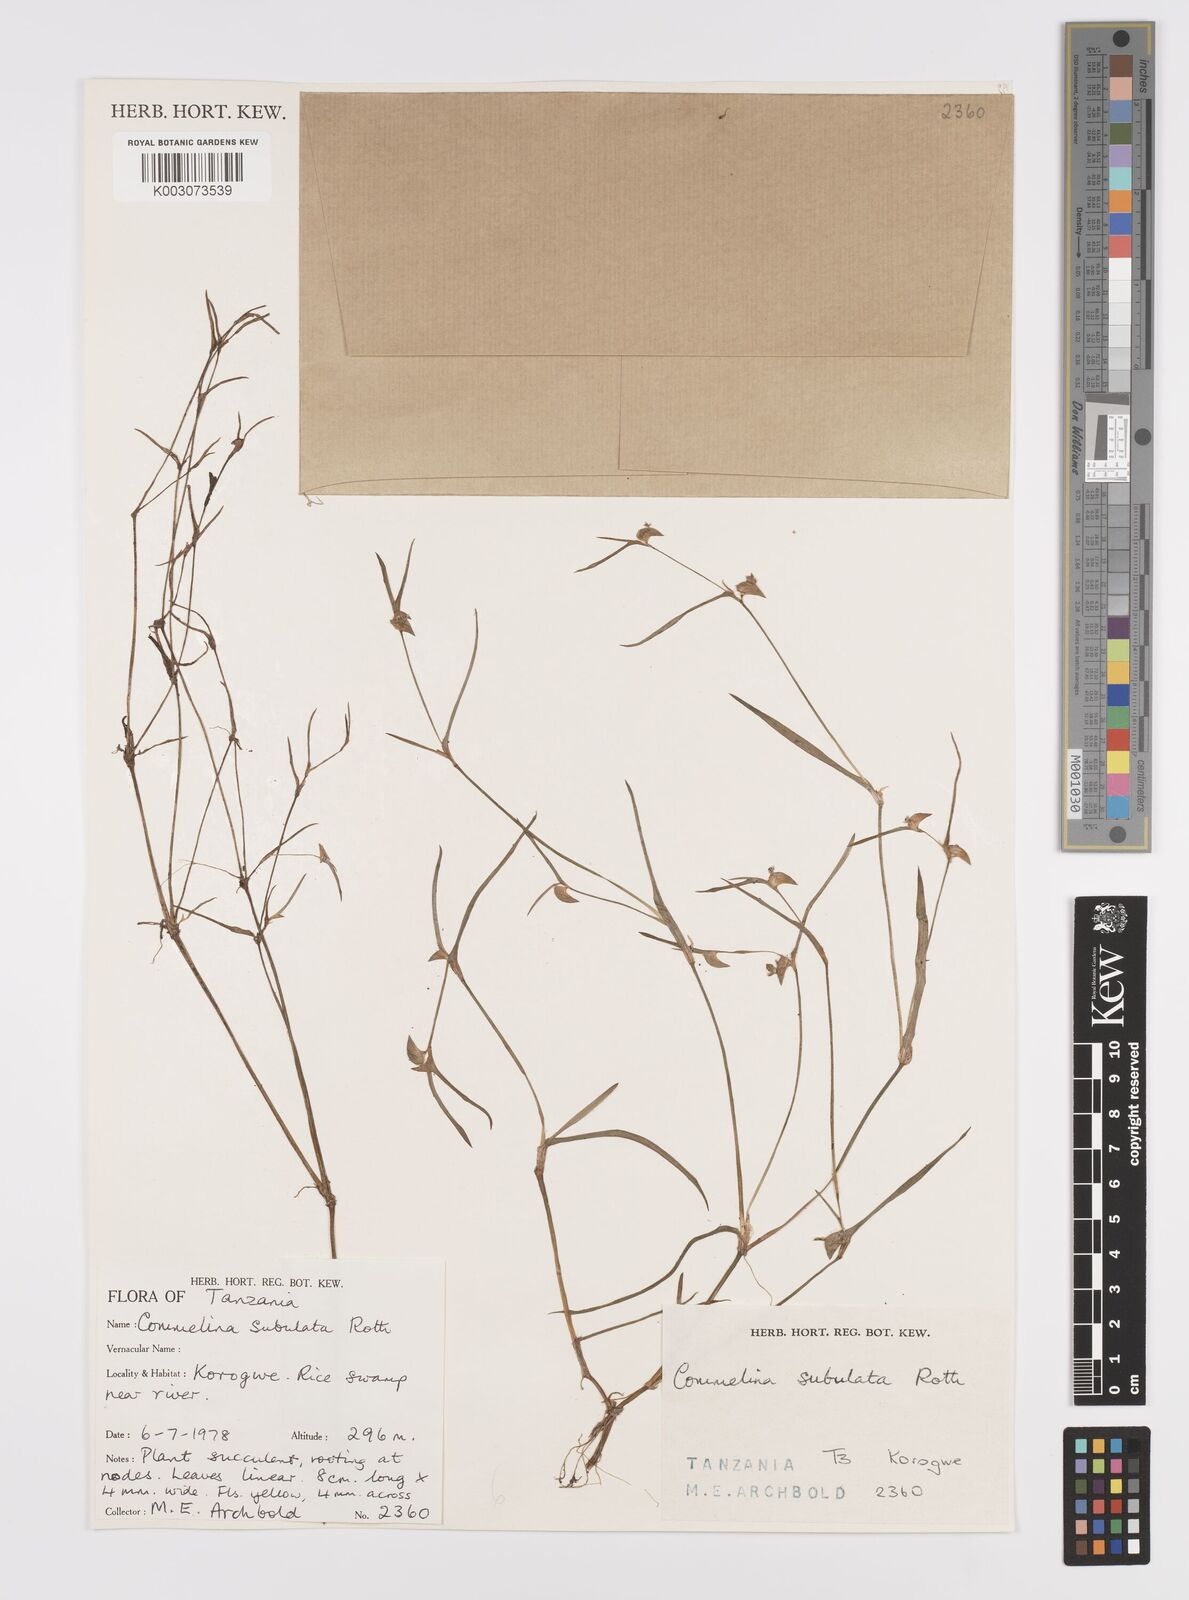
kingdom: Plantae
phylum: Tracheophyta
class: Liliopsida
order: Commelinales
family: Commelinaceae
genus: Commelina
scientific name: Commelina subulata
